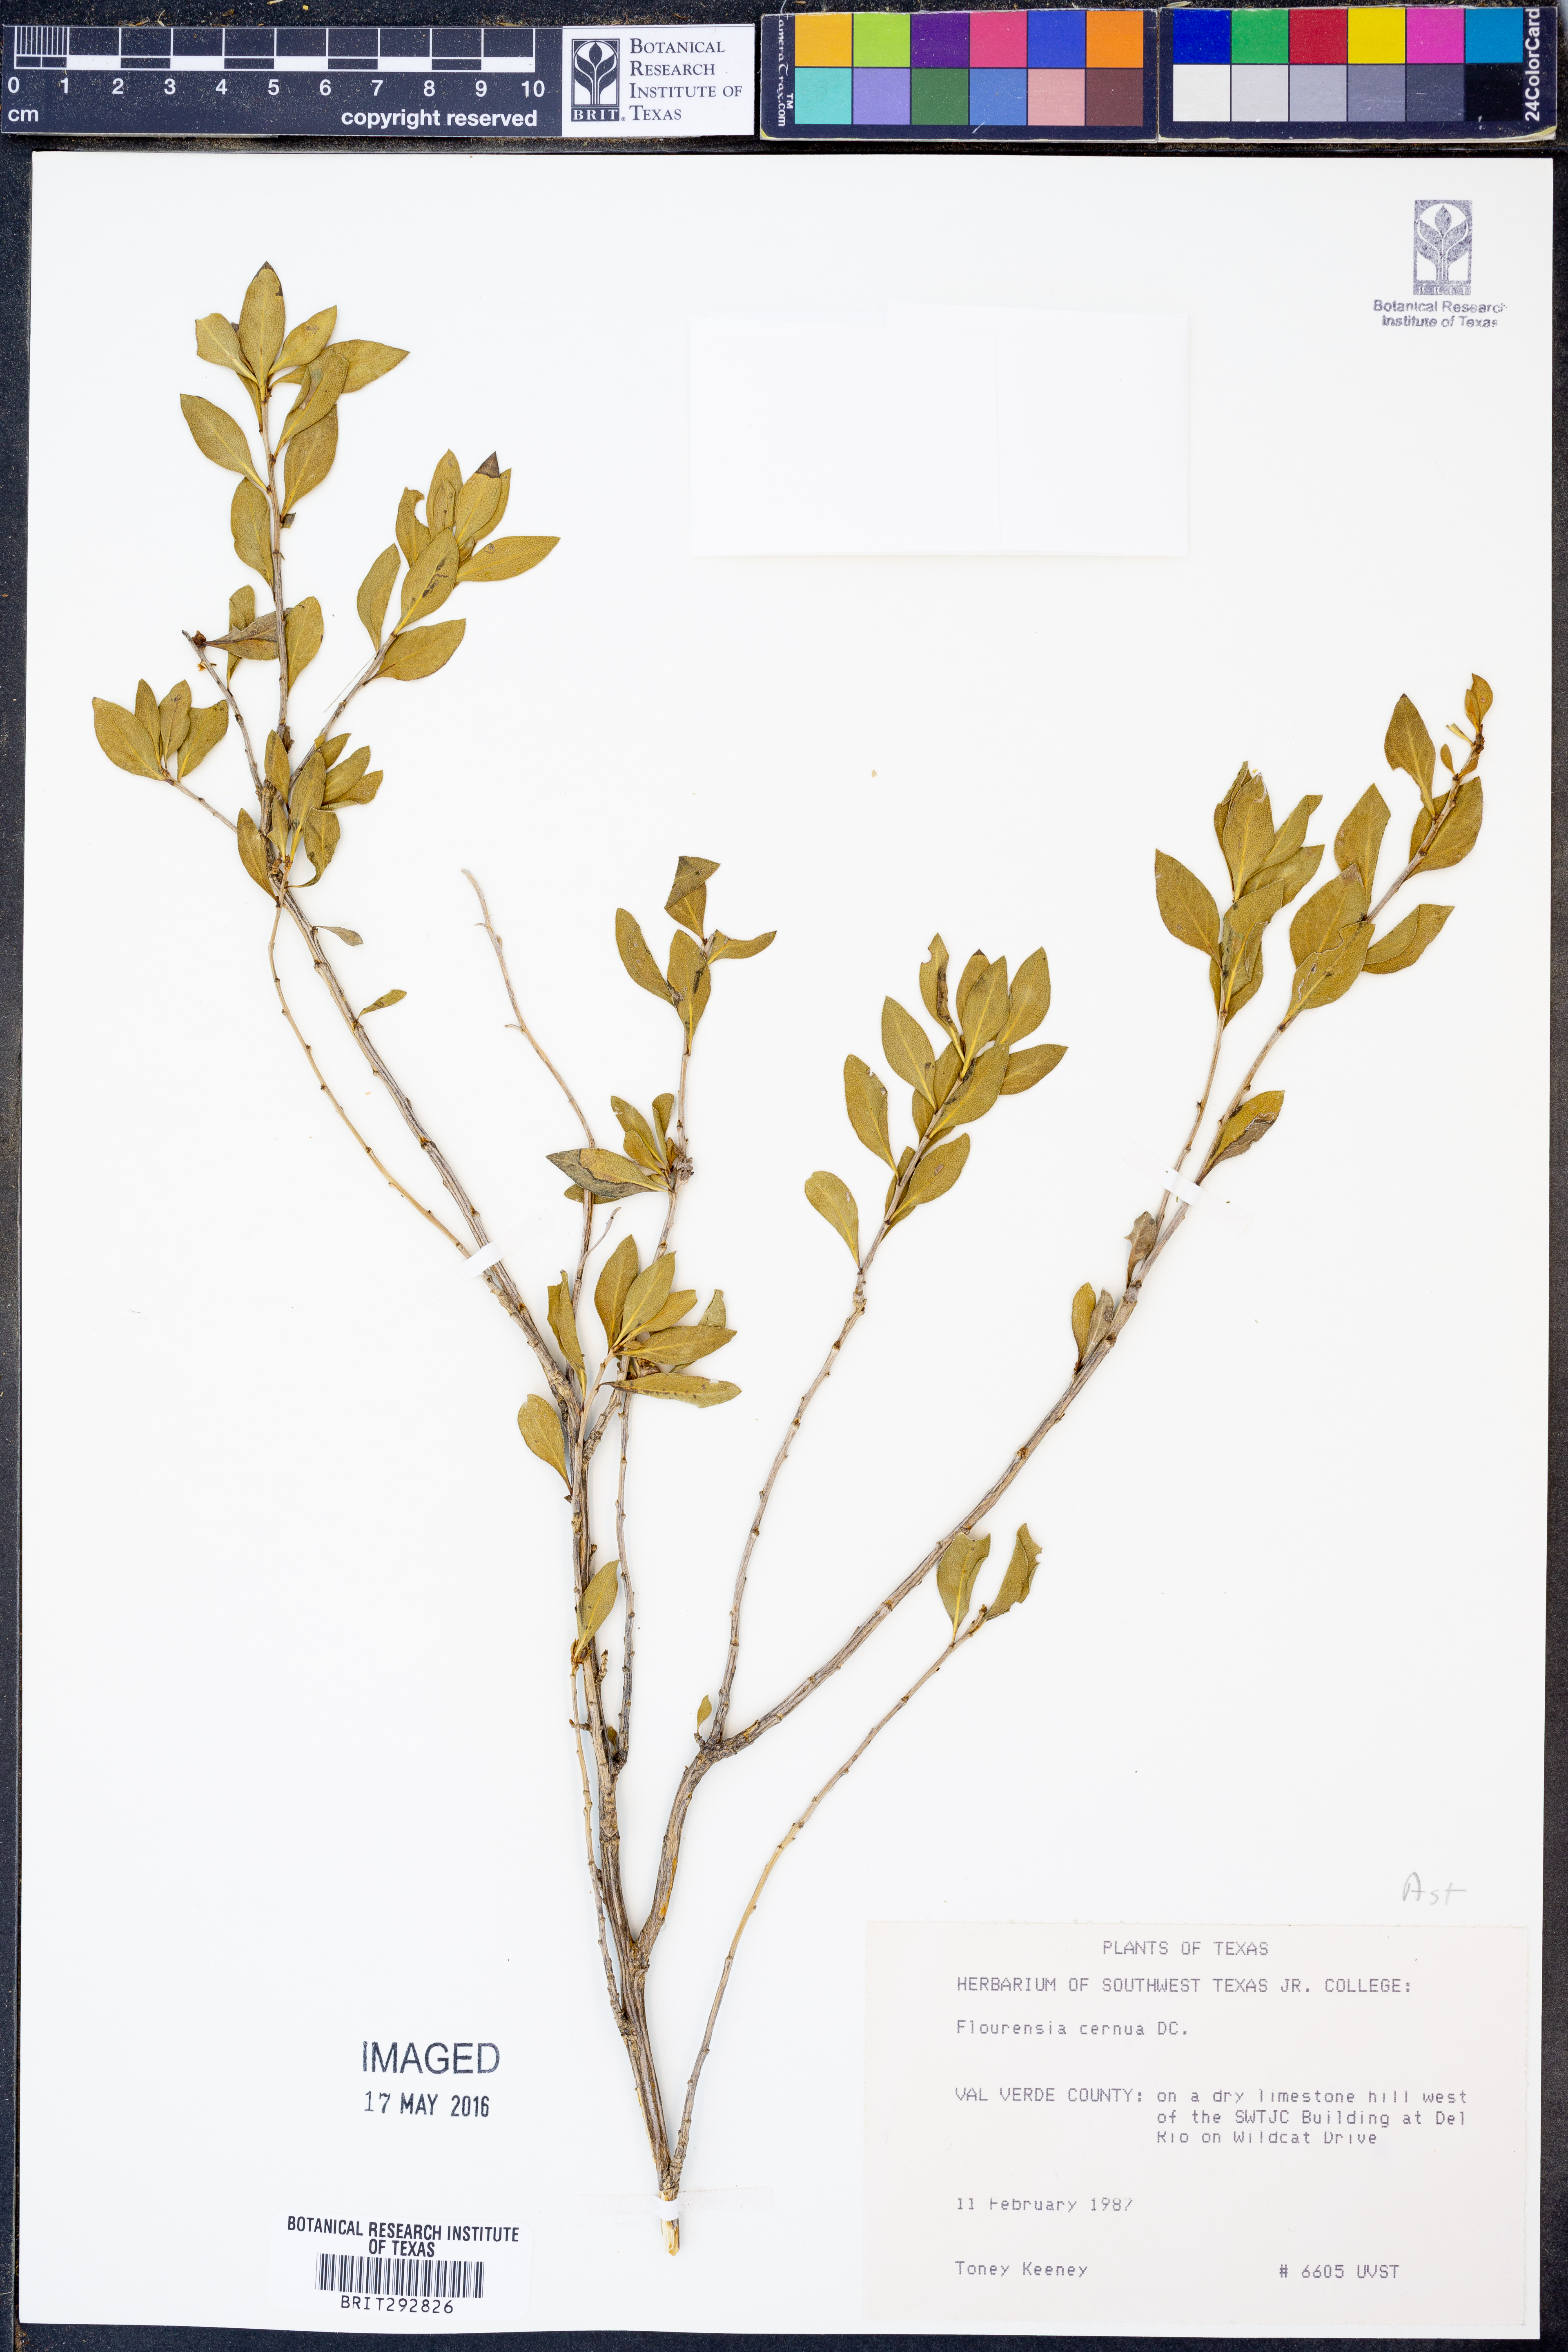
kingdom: Plantae
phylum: Tracheophyta
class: Magnoliopsida
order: Asterales
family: Asteraceae
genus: Flourensia
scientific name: Flourensia cernua
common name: Varnishbush
